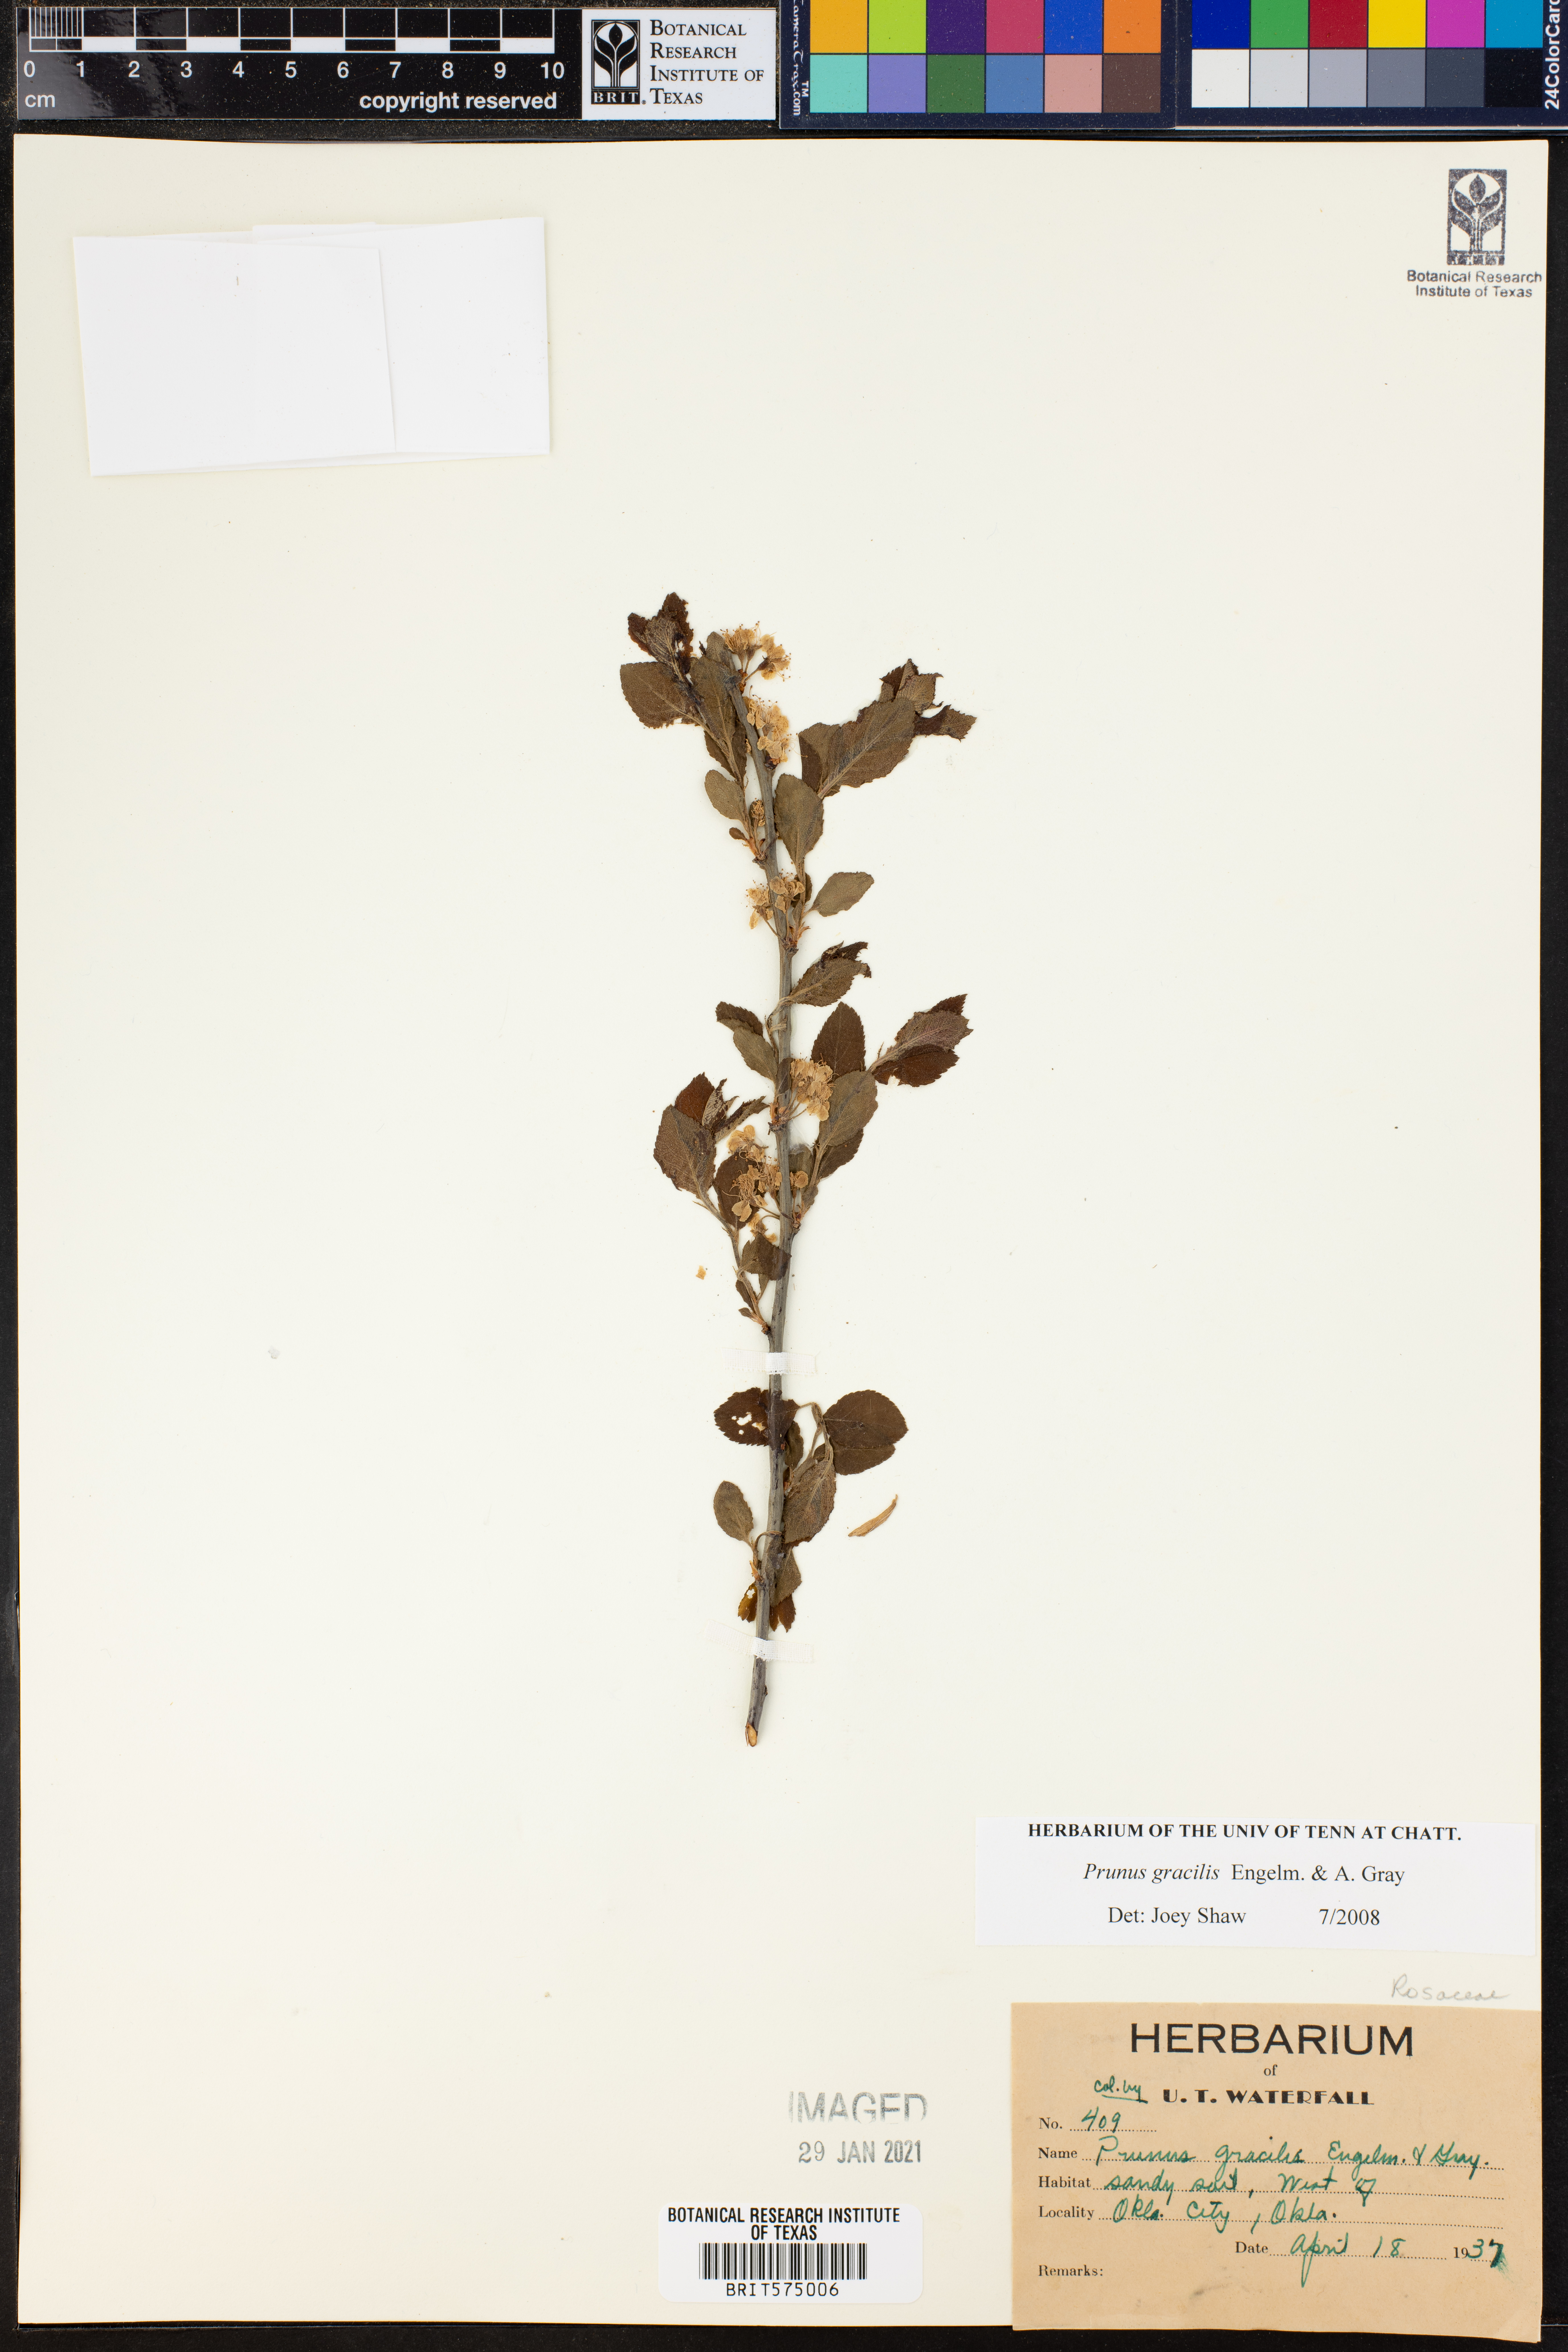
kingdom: Plantae
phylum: Tracheophyta
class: Magnoliopsida
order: Rosales
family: Rosaceae
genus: Prunus
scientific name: Prunus gracilis
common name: Oklahoma plum
